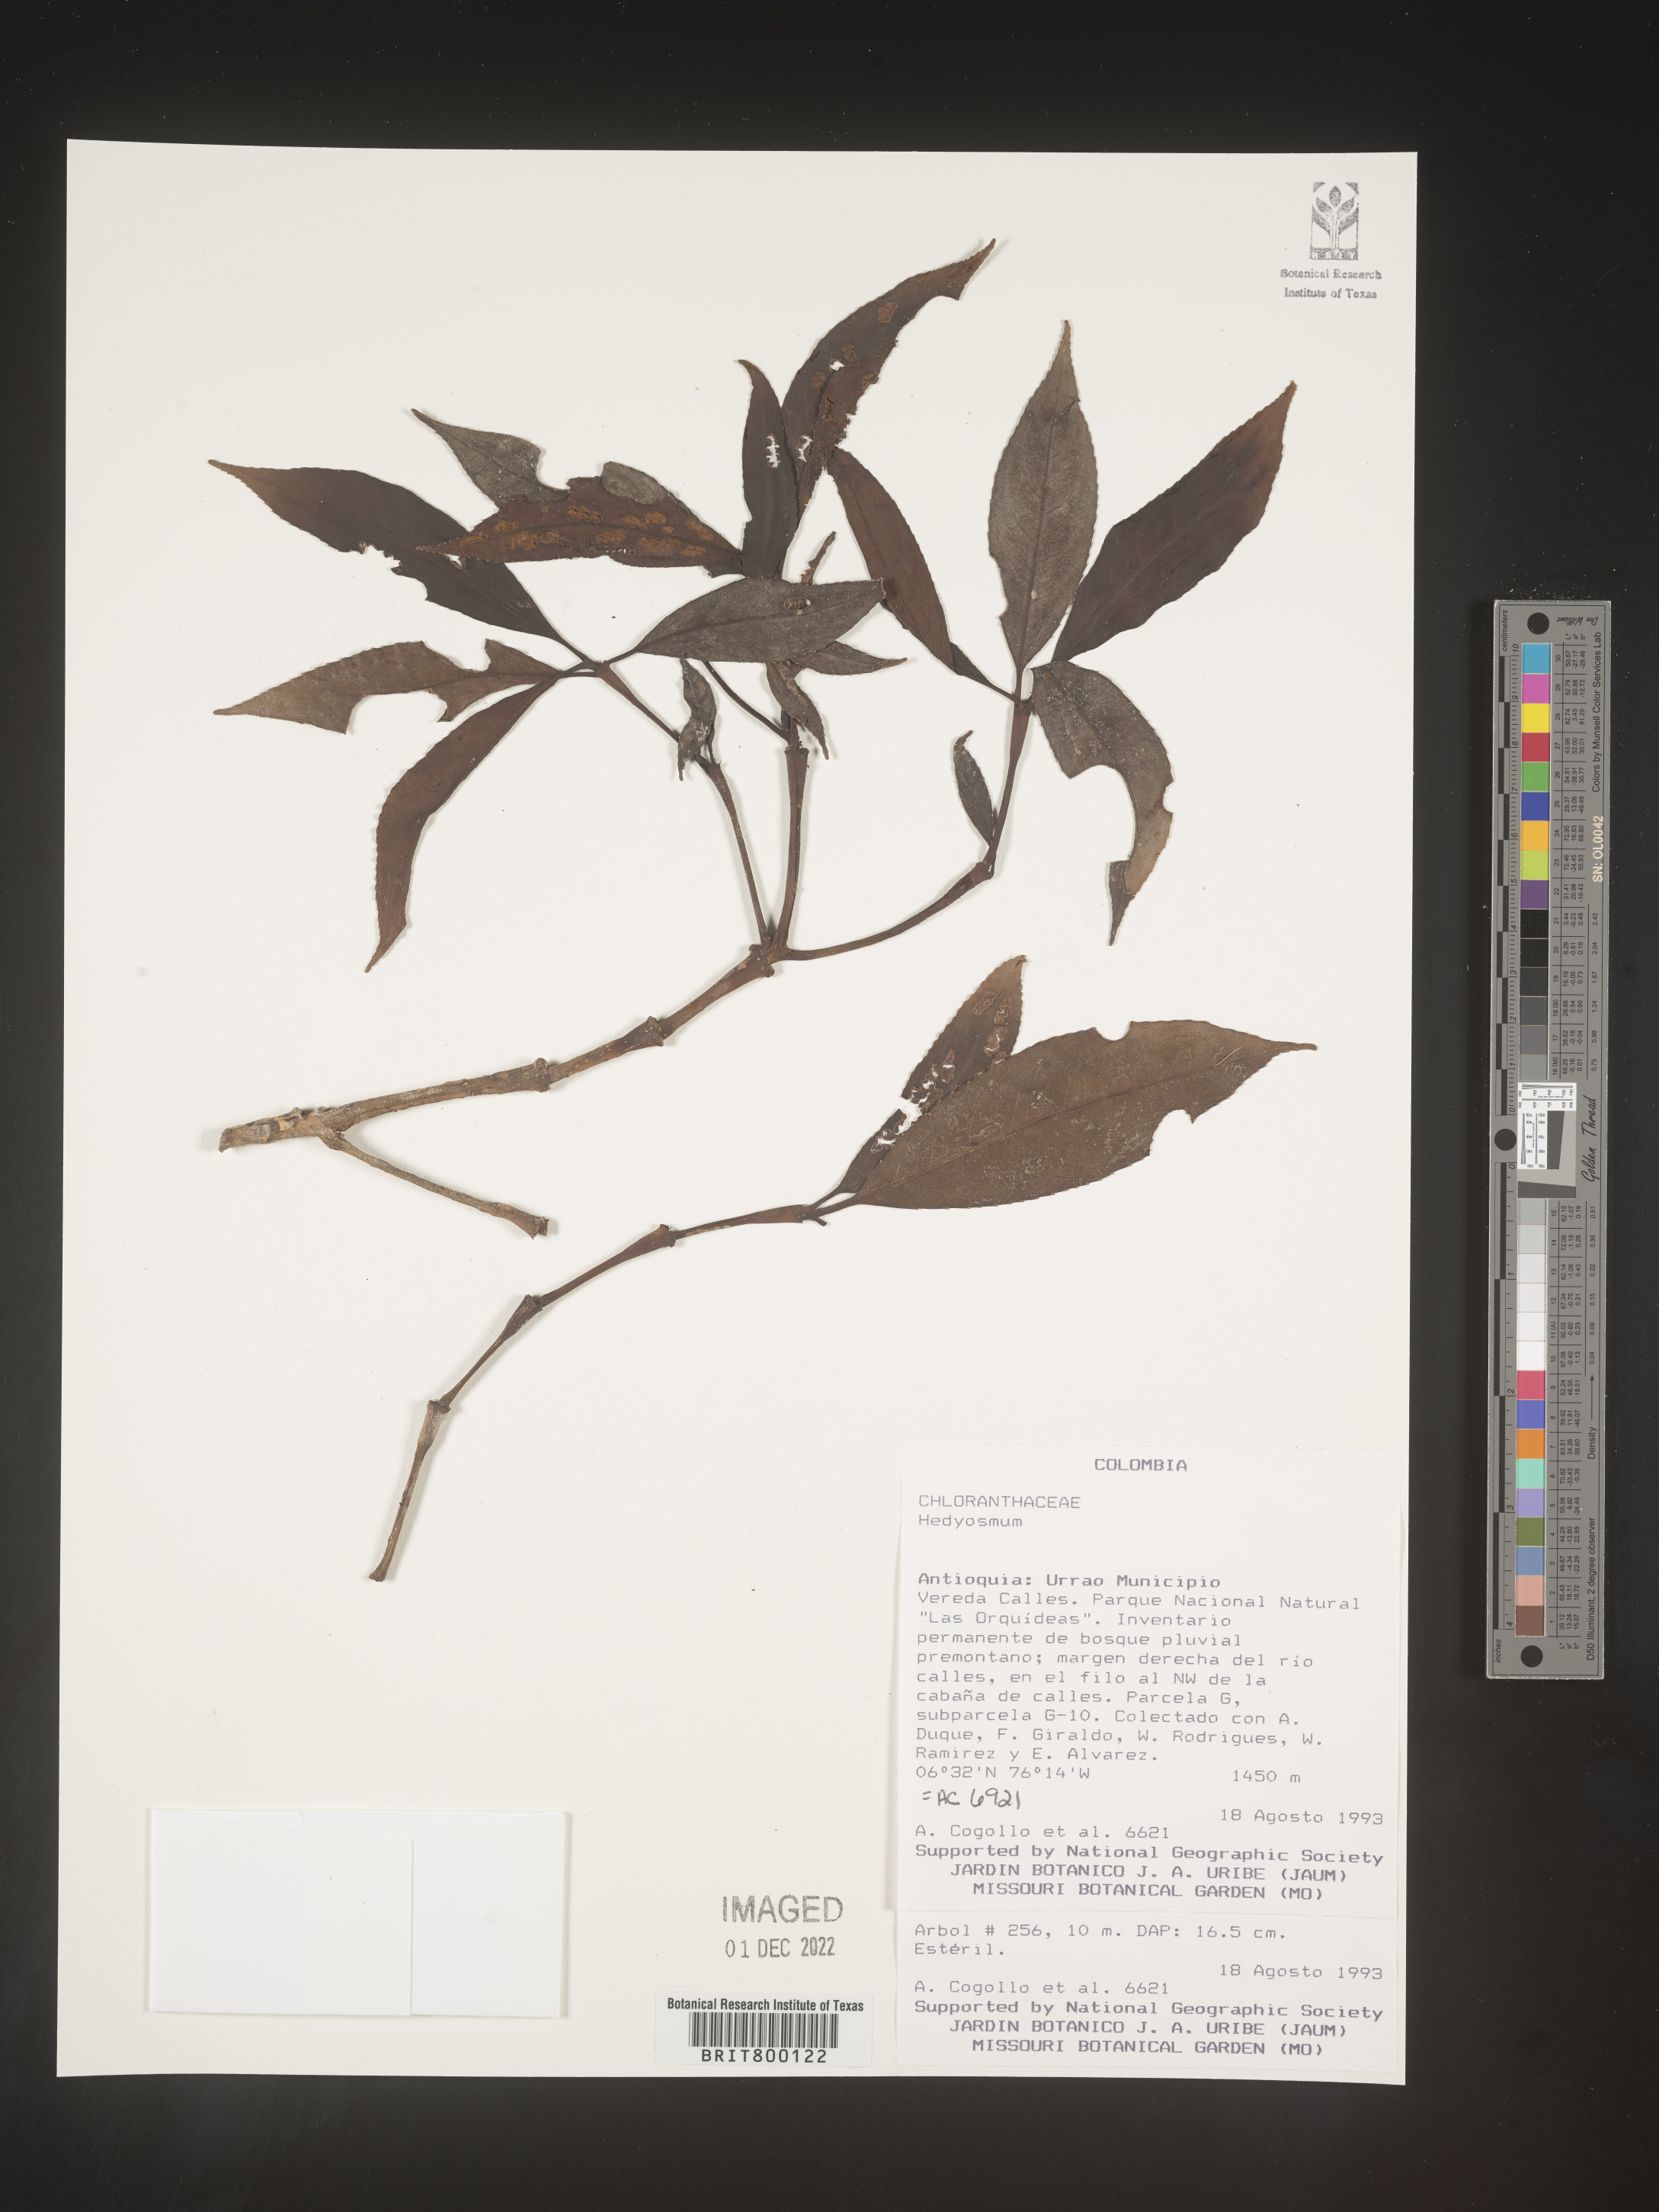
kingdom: Plantae
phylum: Tracheophyta
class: Magnoliopsida
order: Chloranthales
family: Chloranthaceae
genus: Hedyosmum
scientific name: Hedyosmum
